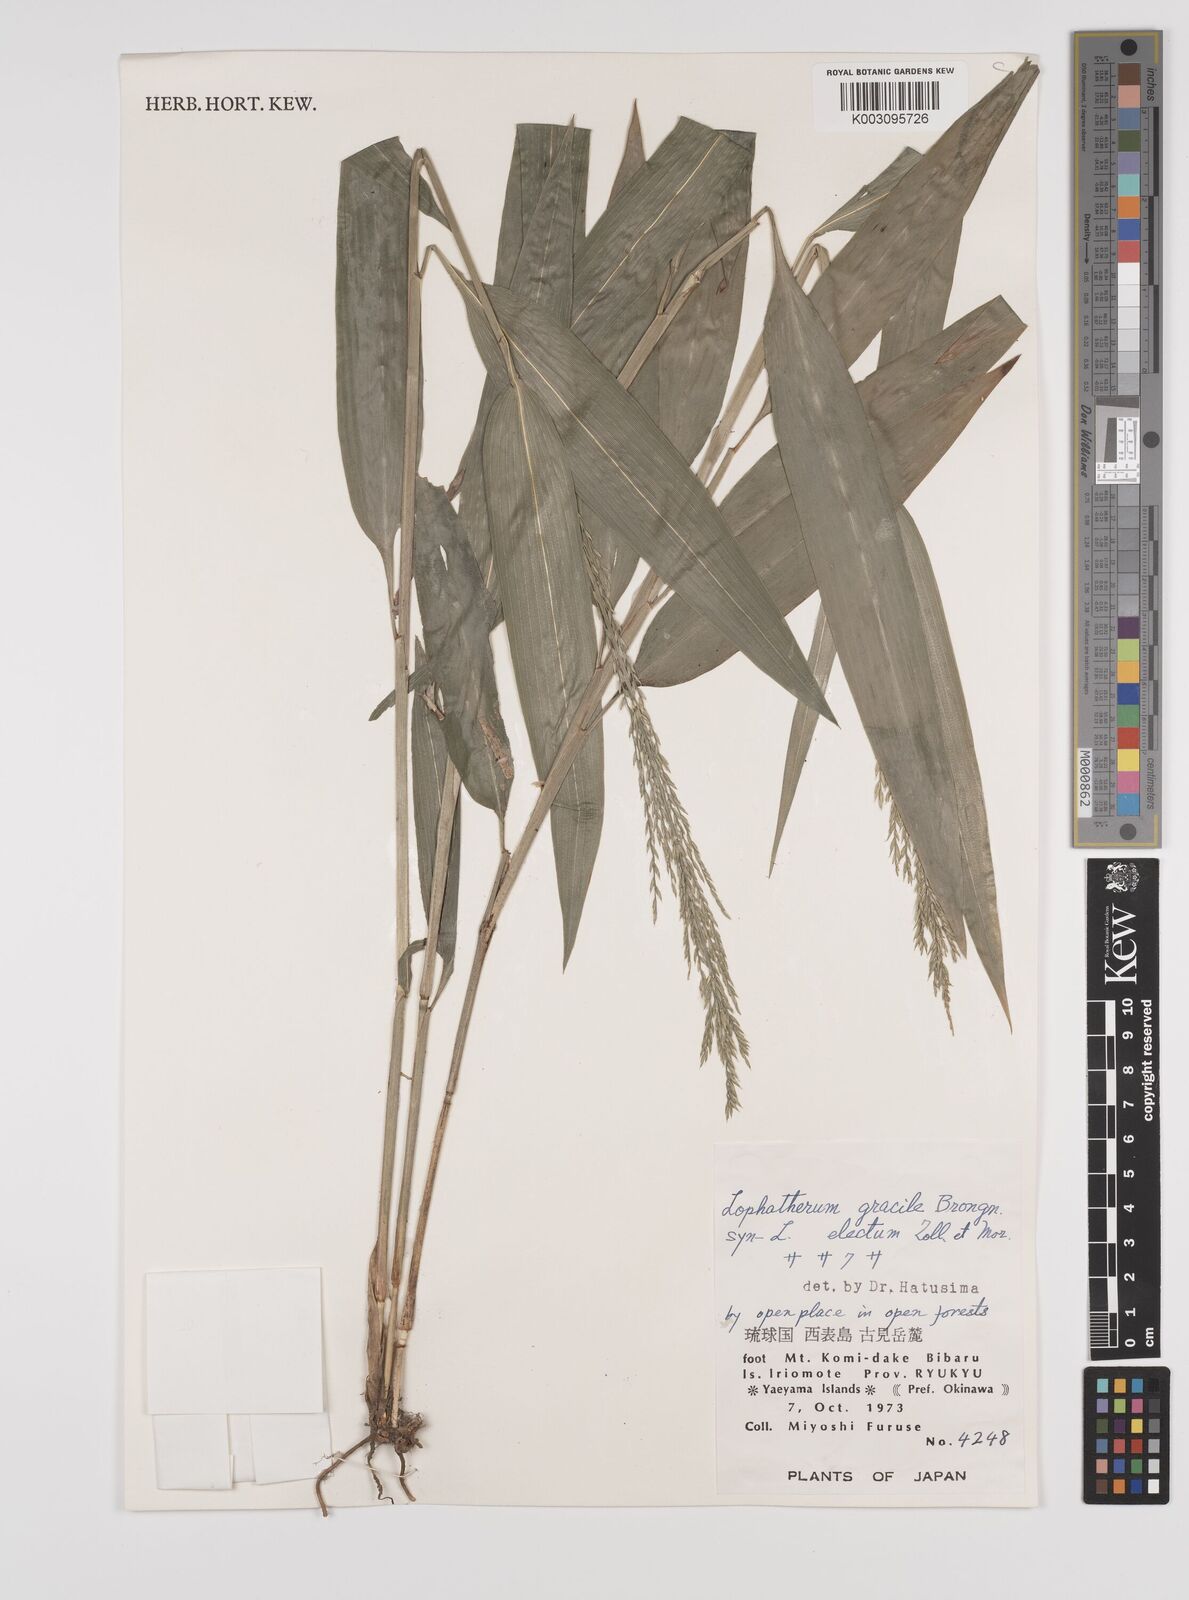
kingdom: Plantae
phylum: Tracheophyta
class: Liliopsida
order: Poales
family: Poaceae
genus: Lophatherum
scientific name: Lophatherum gracile
